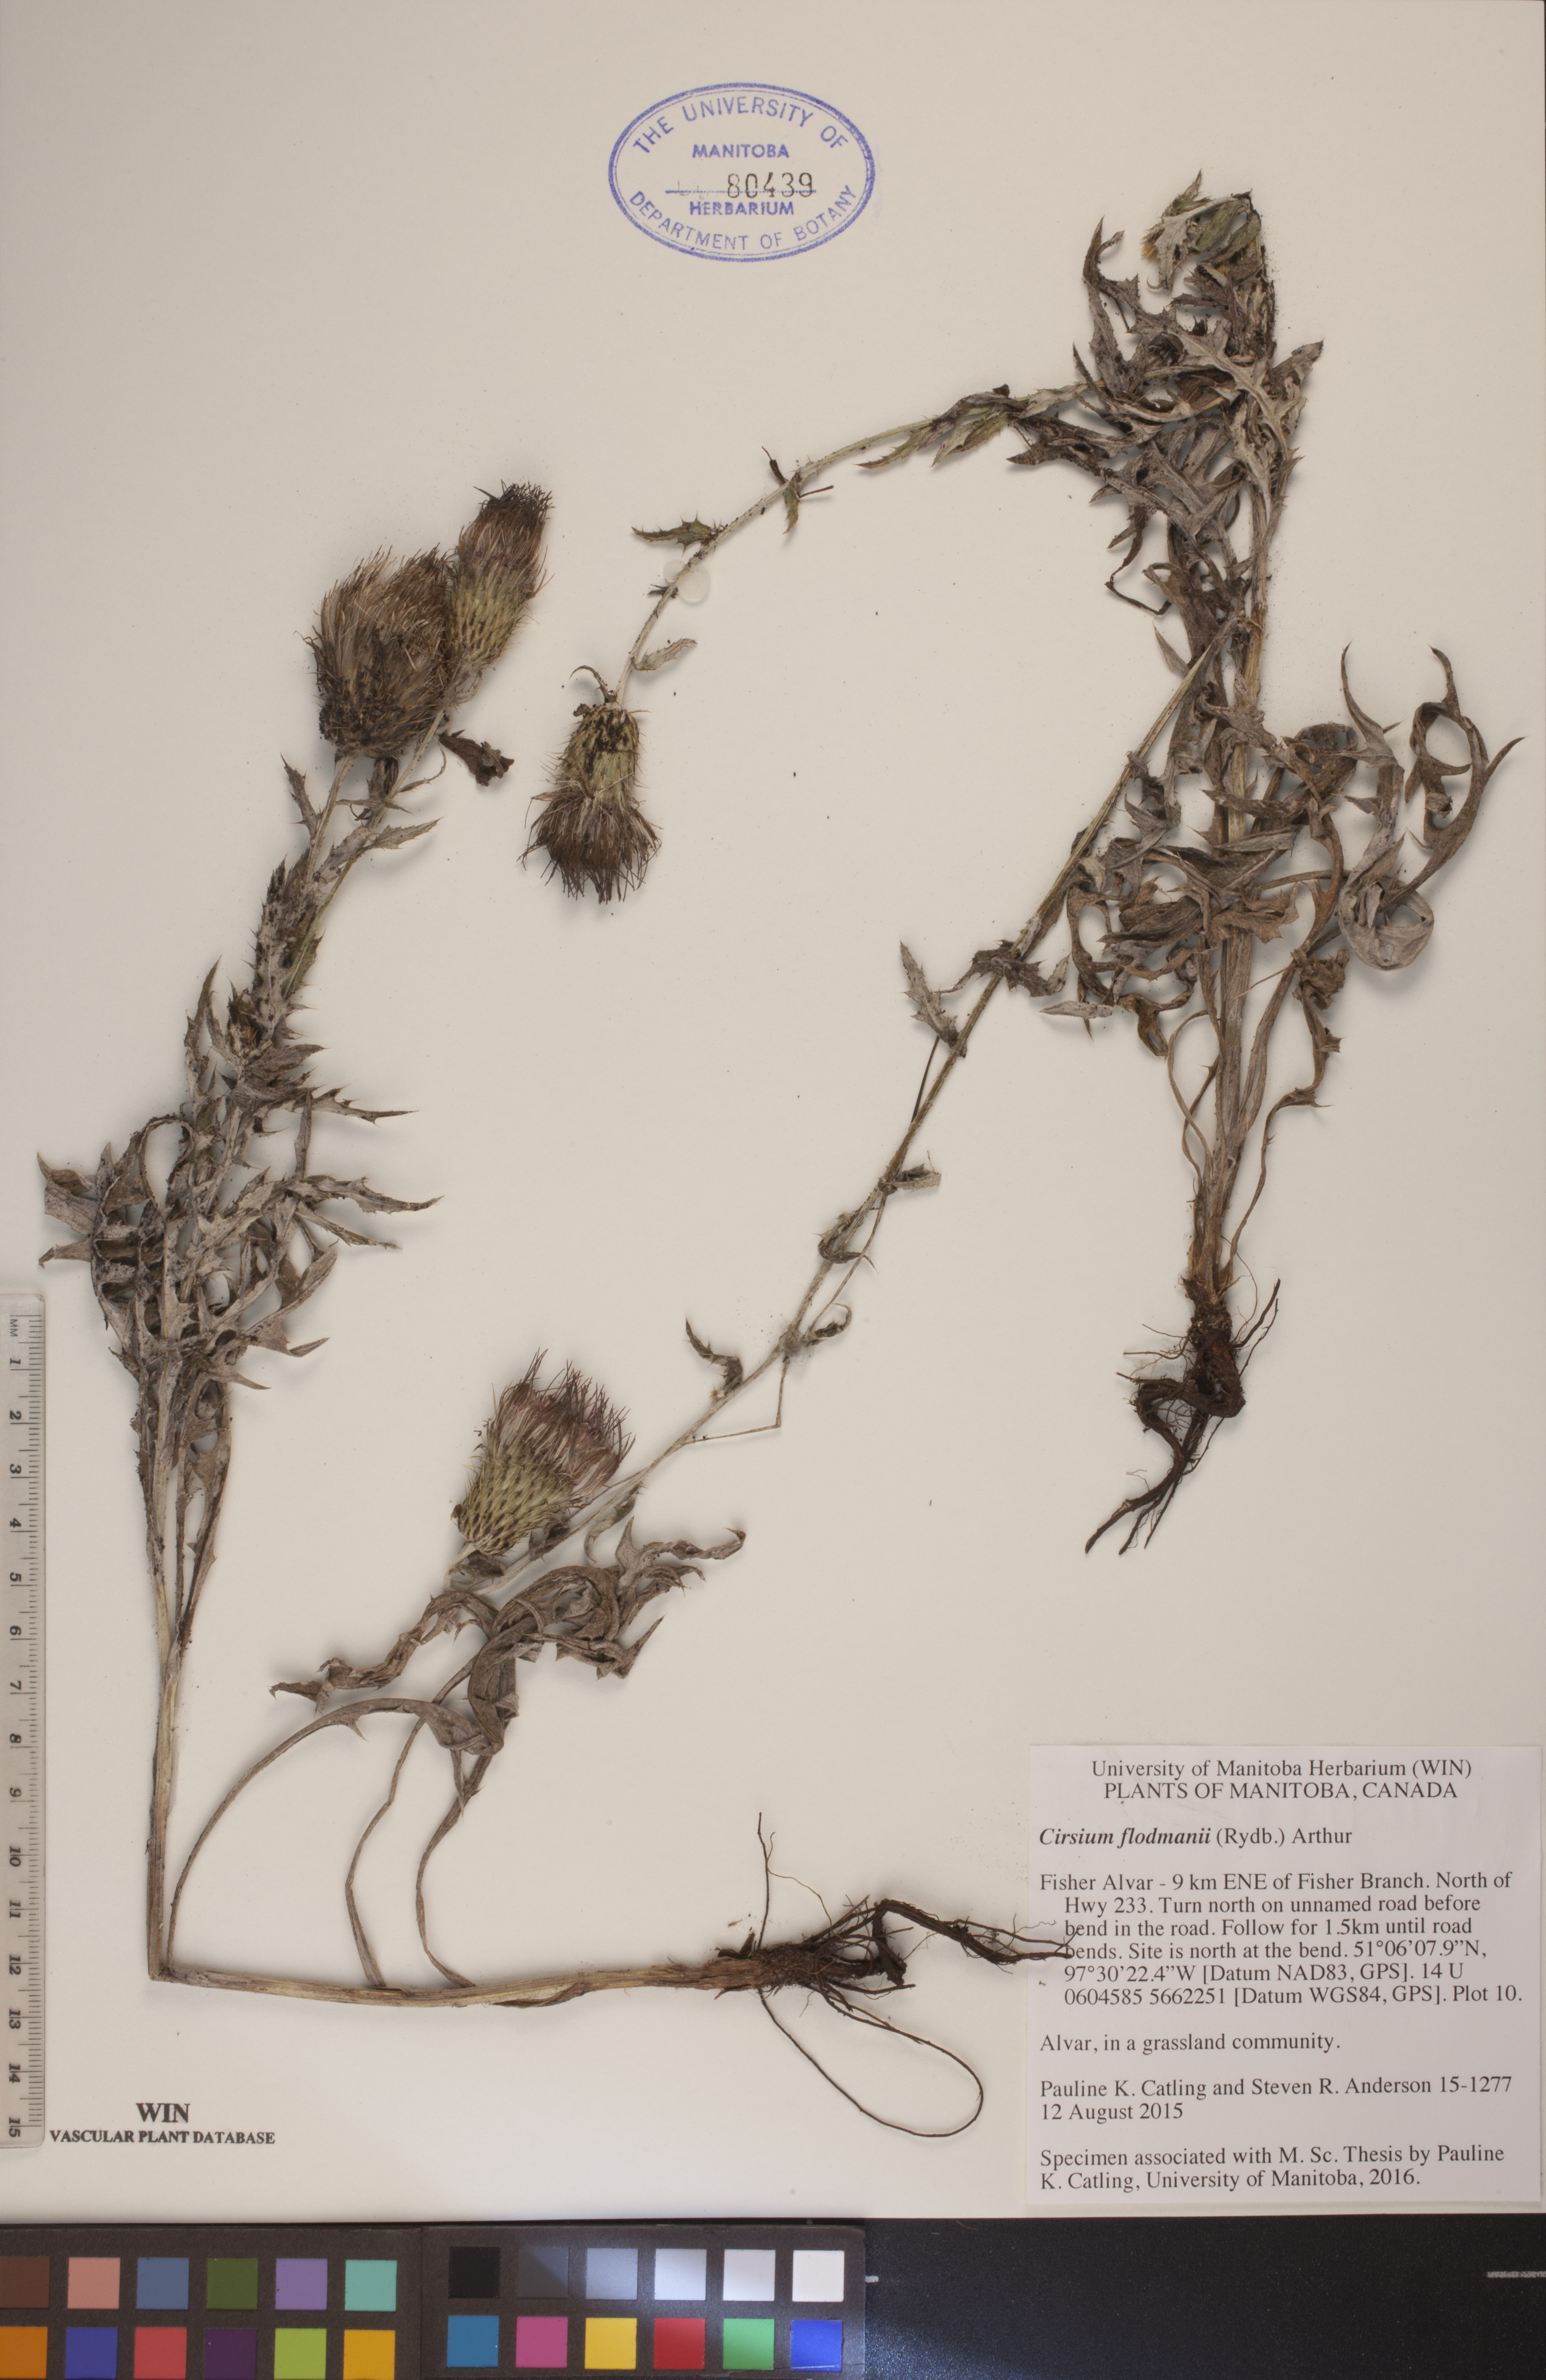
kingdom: Plantae
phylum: Tracheophyta
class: Magnoliopsida
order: Asterales
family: Asteraceae
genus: Cirsium
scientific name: Cirsium flodmanii
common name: Flodman's thistle
